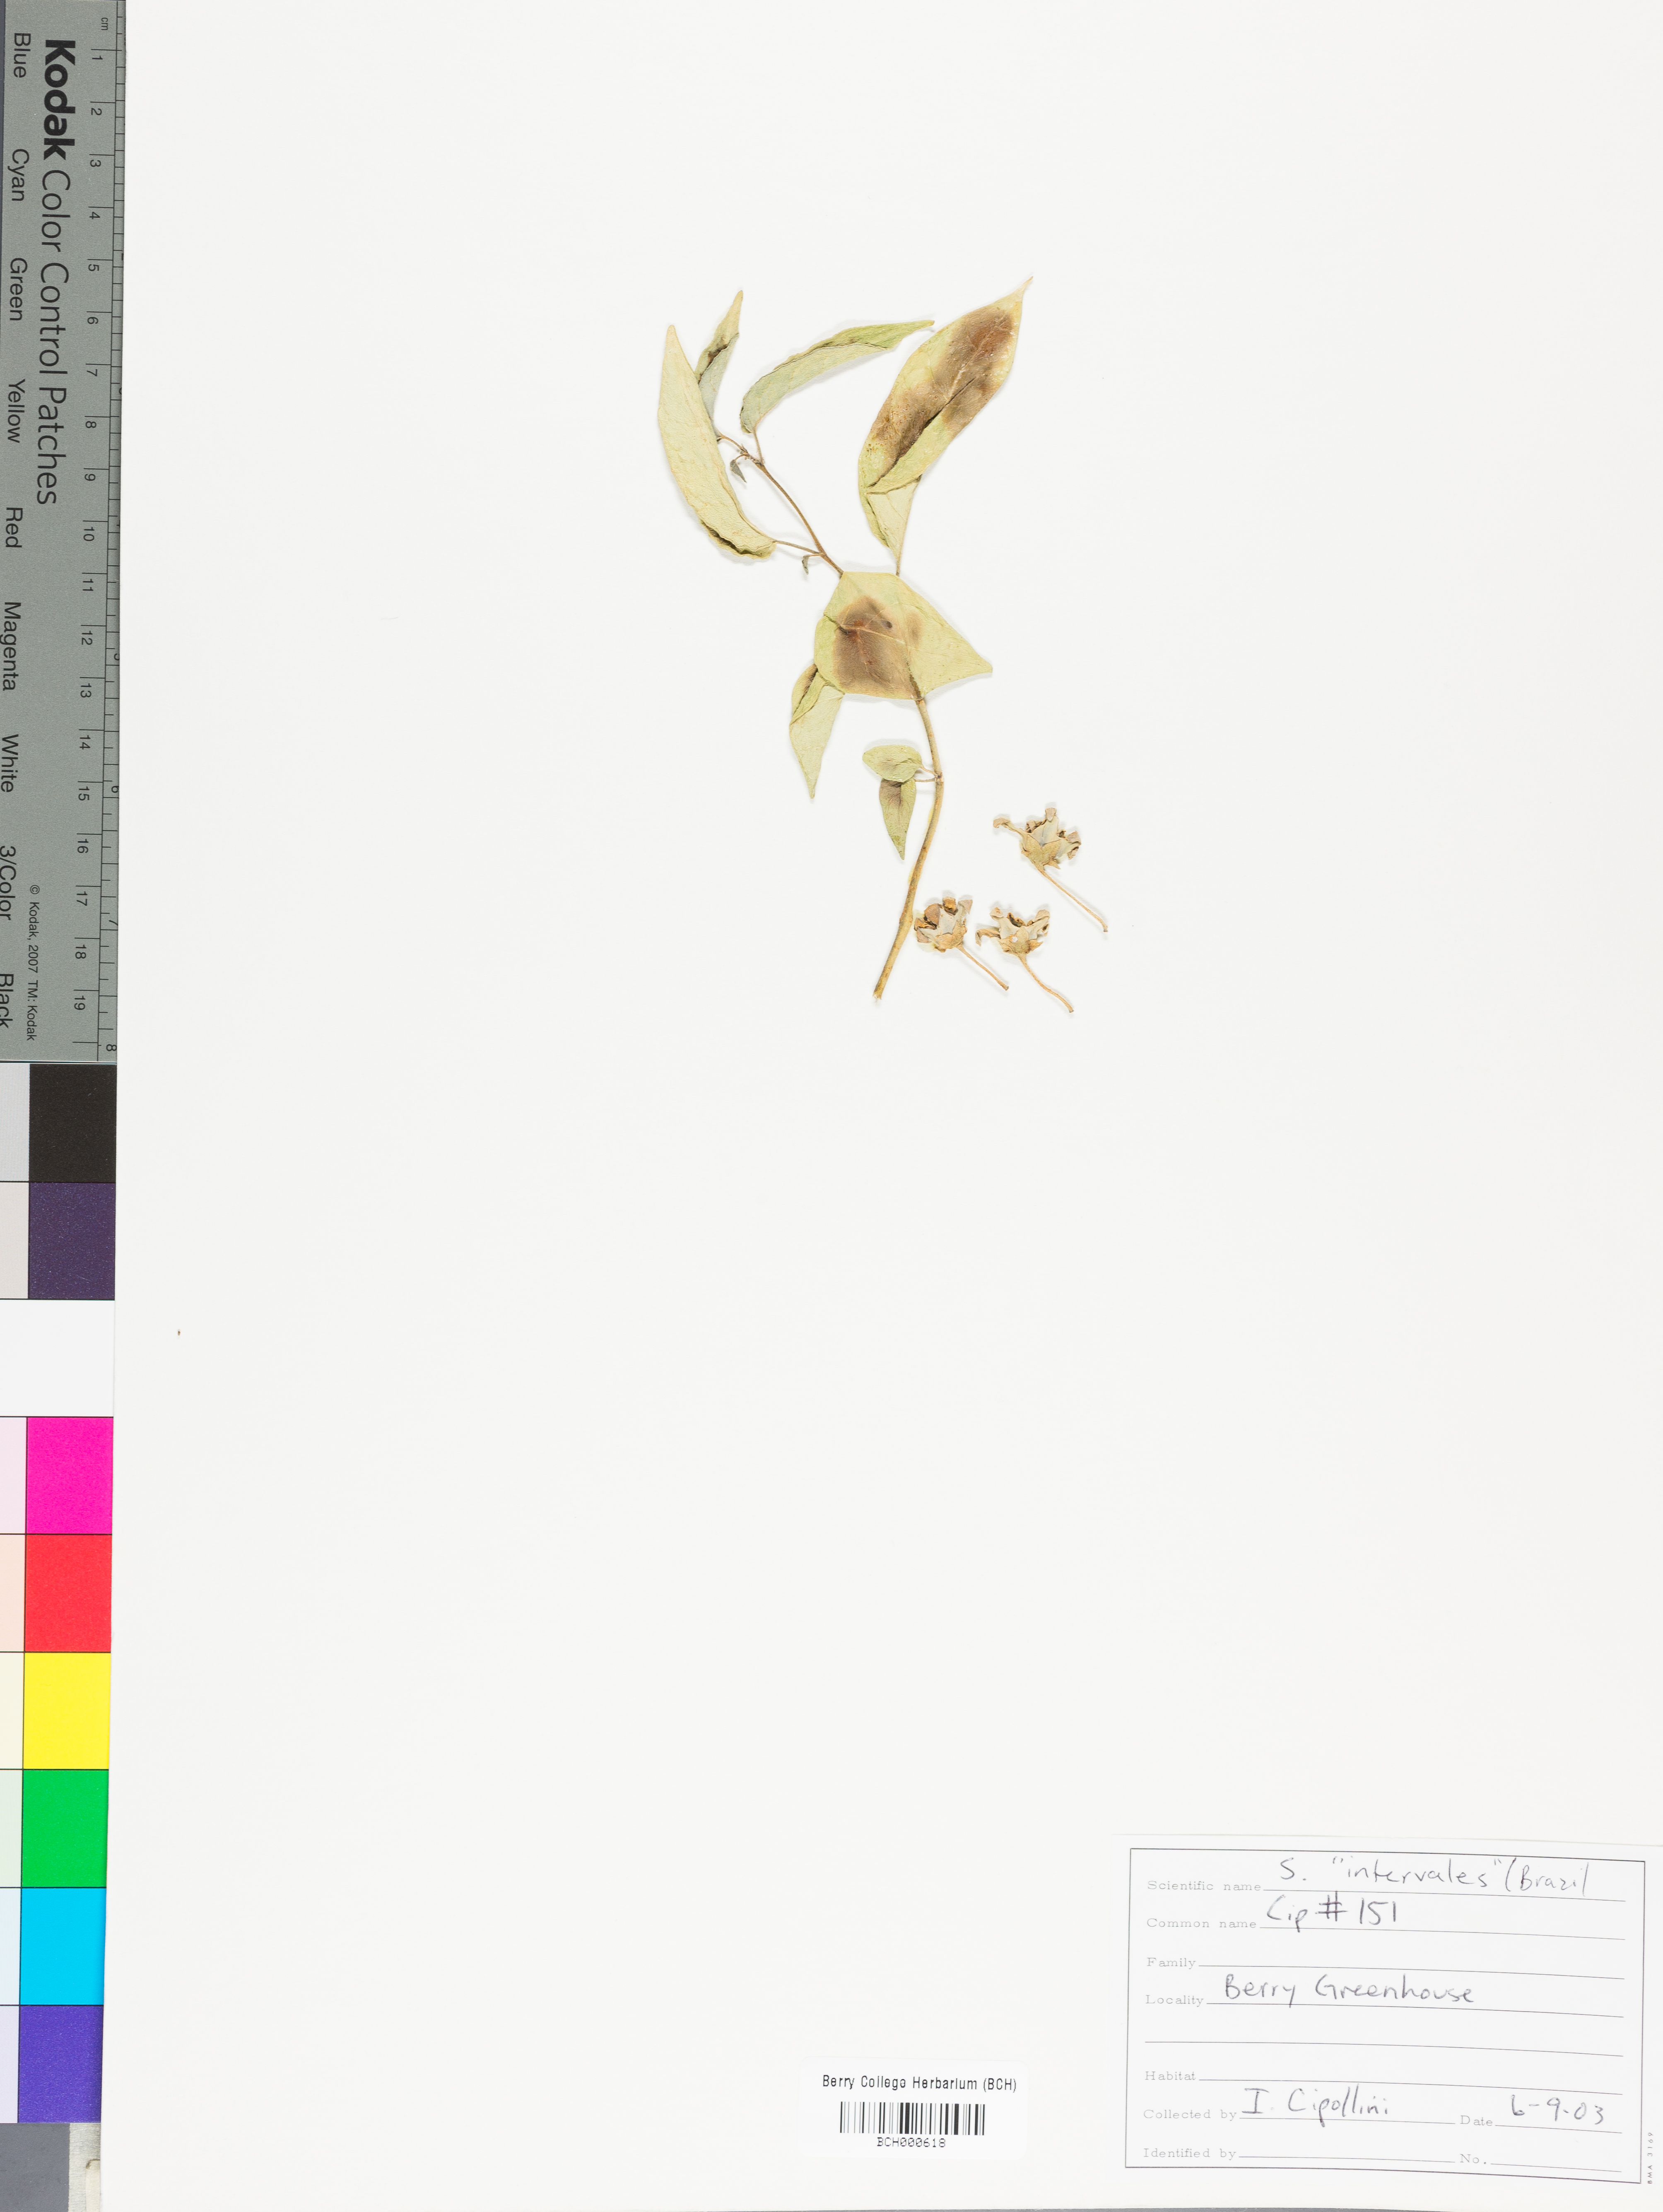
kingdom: Plantae
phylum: Tracheophyta
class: Magnoliopsida
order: Solanales
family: Solanaceae
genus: Solanum
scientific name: Solanum
